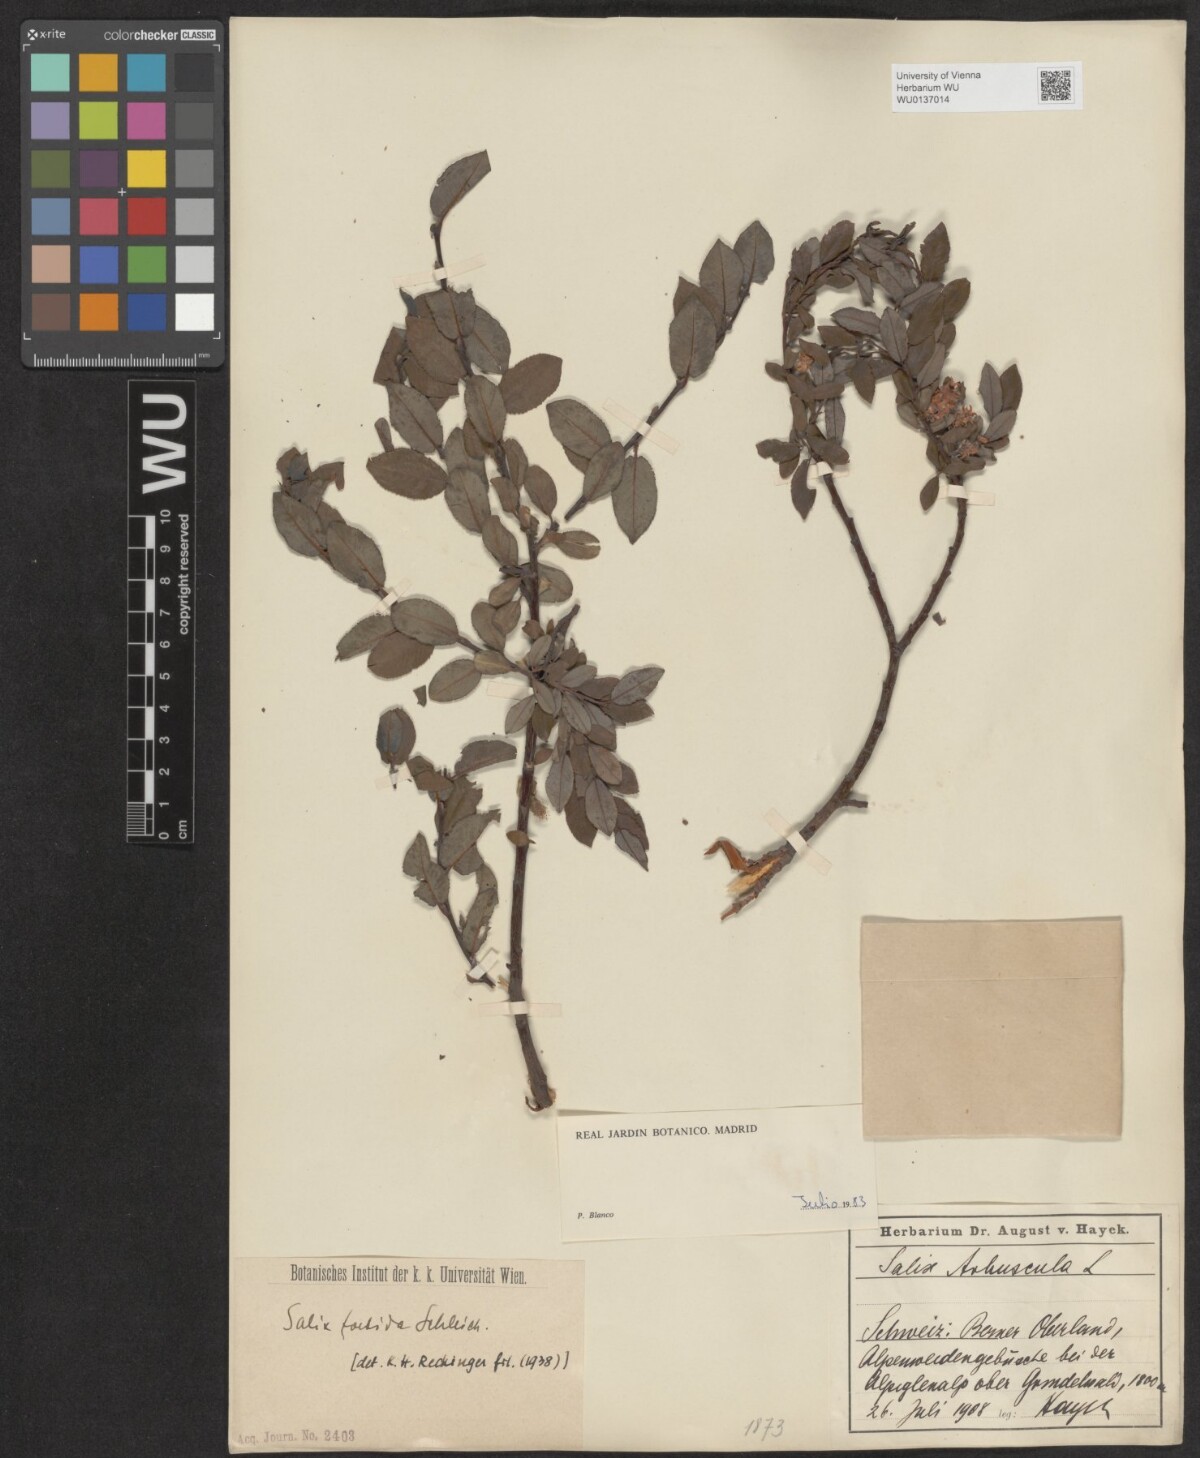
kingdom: Plantae
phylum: Tracheophyta
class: Magnoliopsida
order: Malpighiales
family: Salicaceae
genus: Salix
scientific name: Salix foetida
